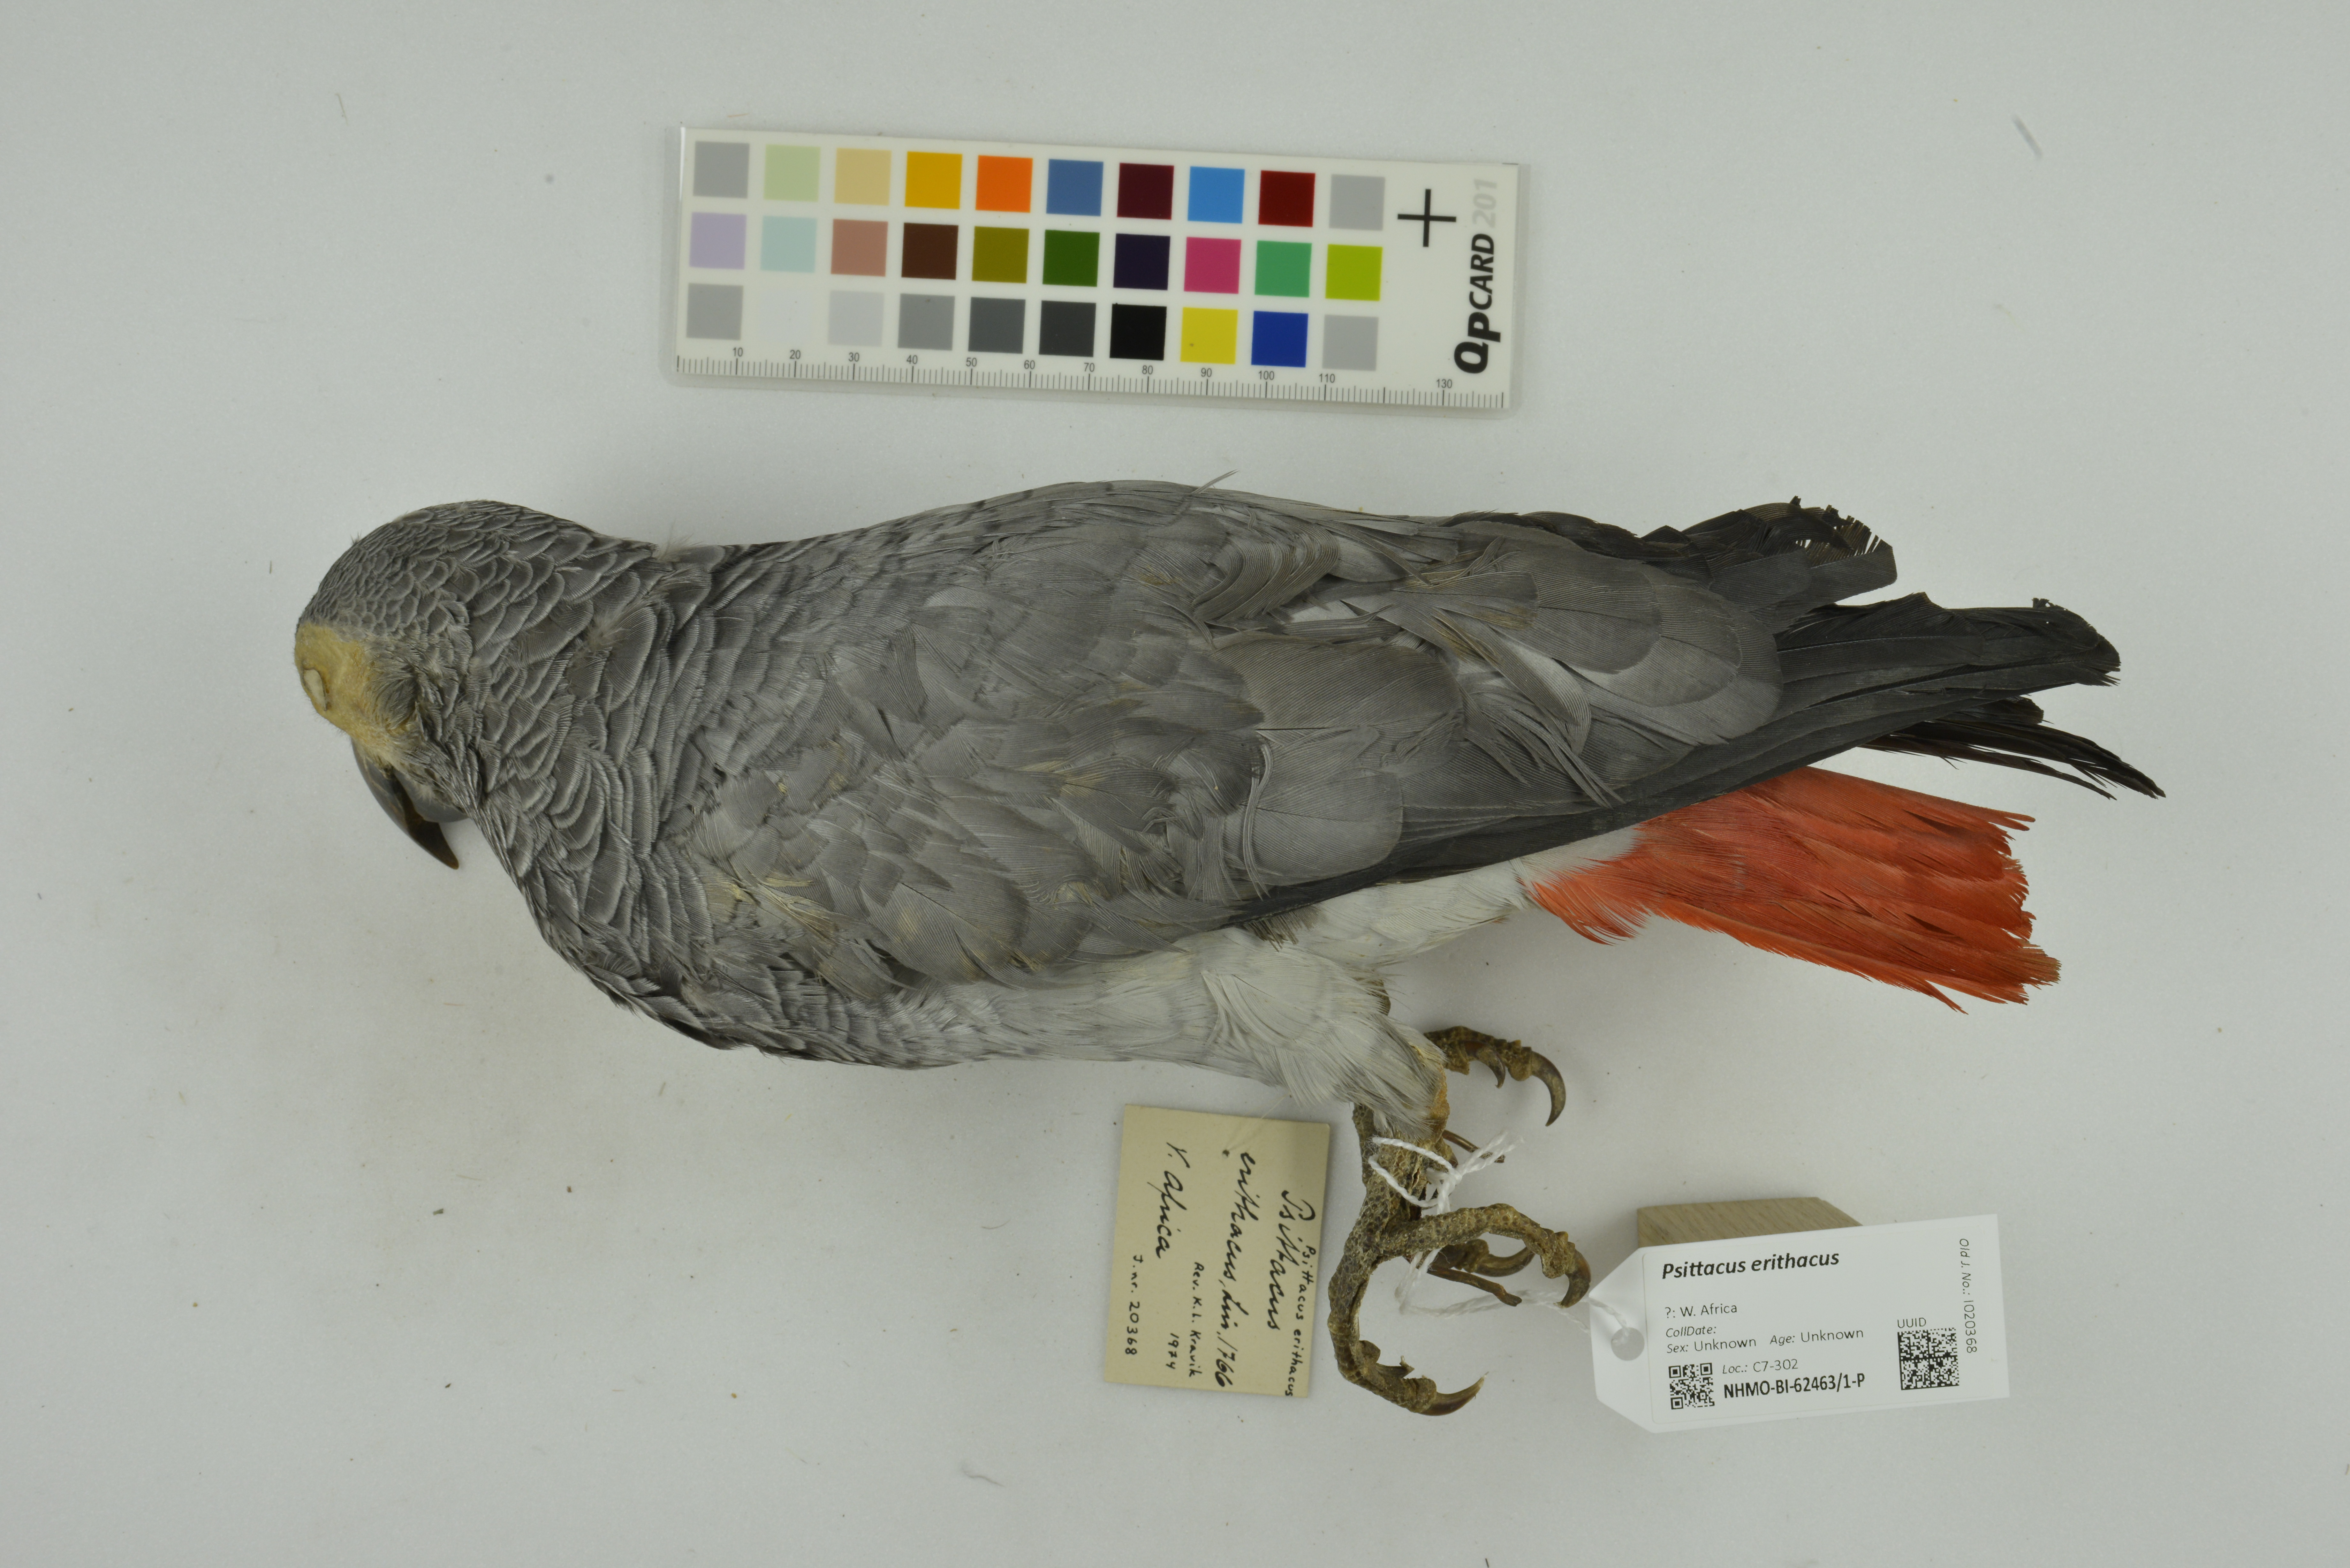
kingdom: Animalia
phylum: Chordata
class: Aves
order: Psittaciformes
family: Psittacidae
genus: Psittacus
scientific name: Psittacus erithacus
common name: Grey parrot
